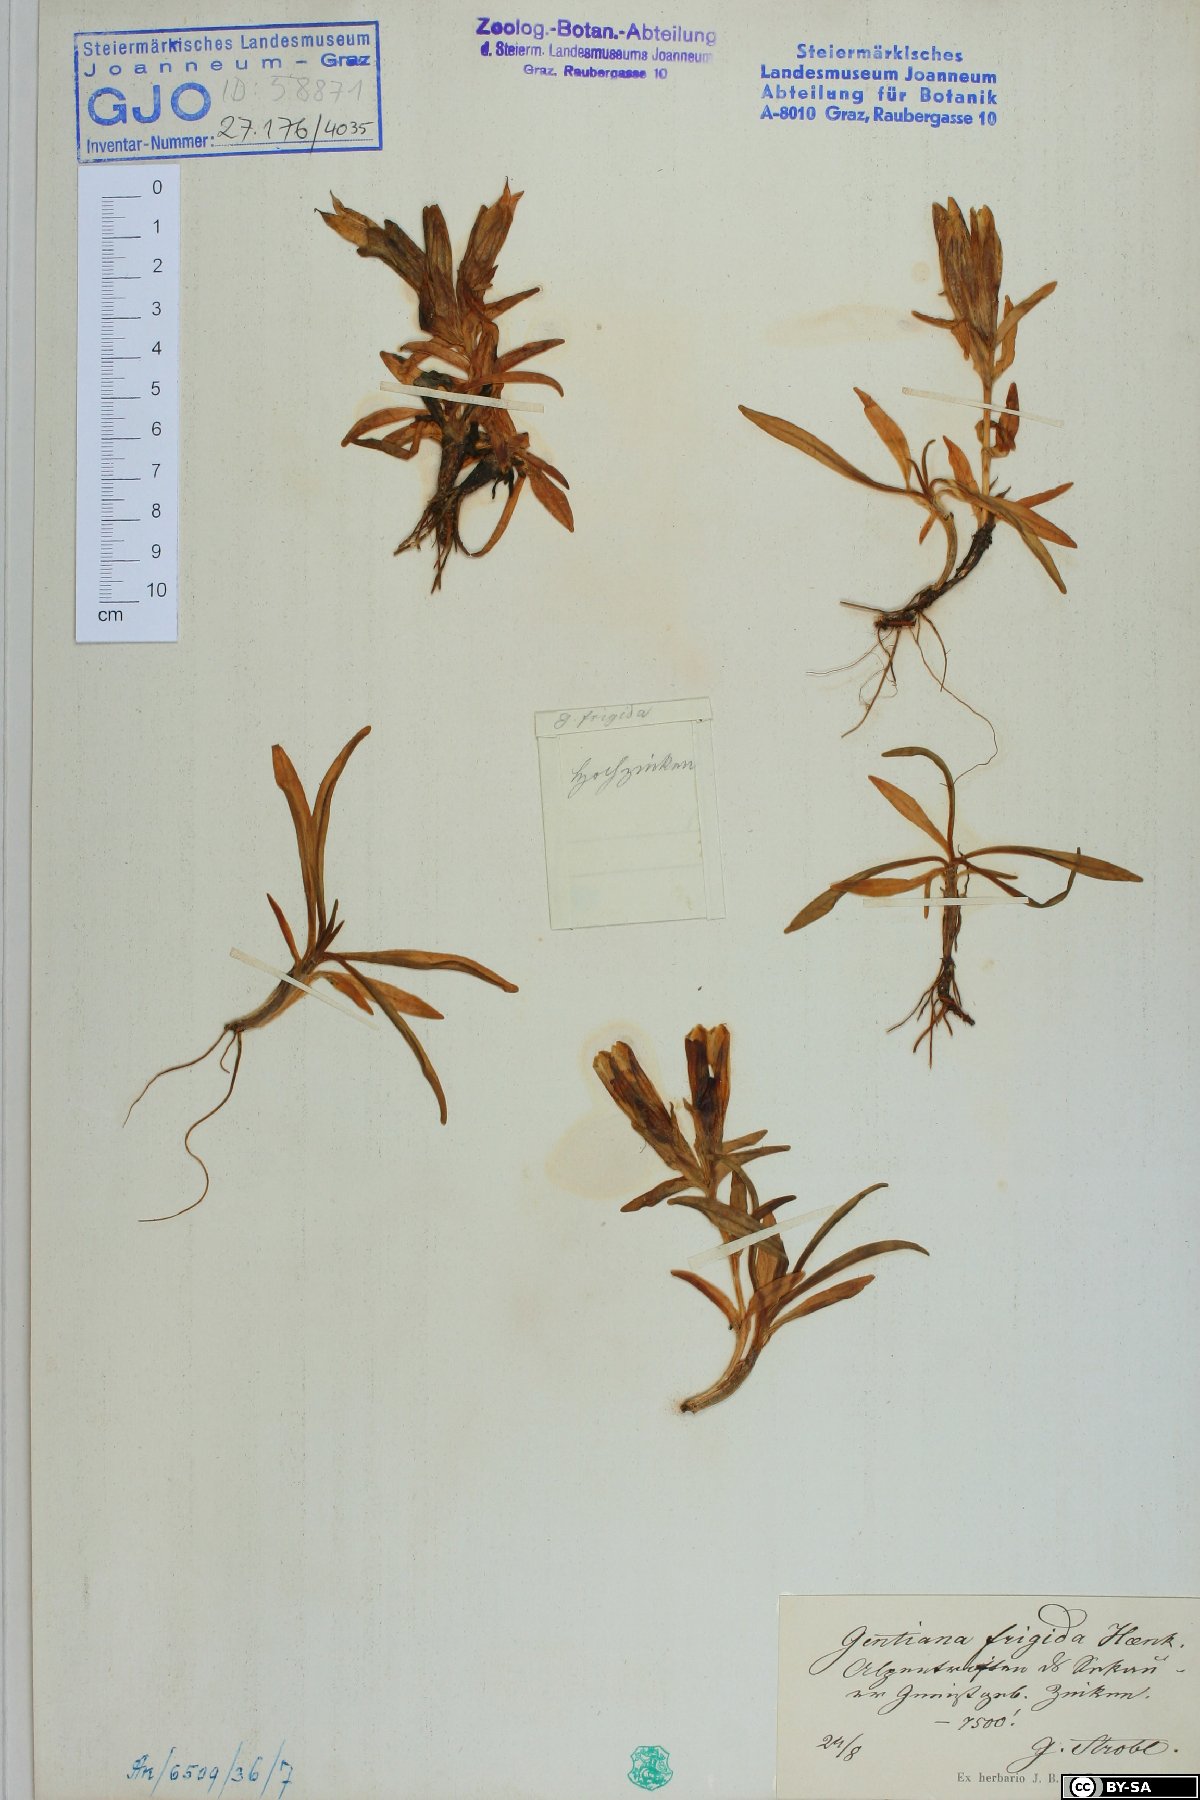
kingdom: Plantae
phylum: Tracheophyta
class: Magnoliopsida
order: Gentianales
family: Gentianaceae
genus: Gentiana
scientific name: Gentiana frigida
